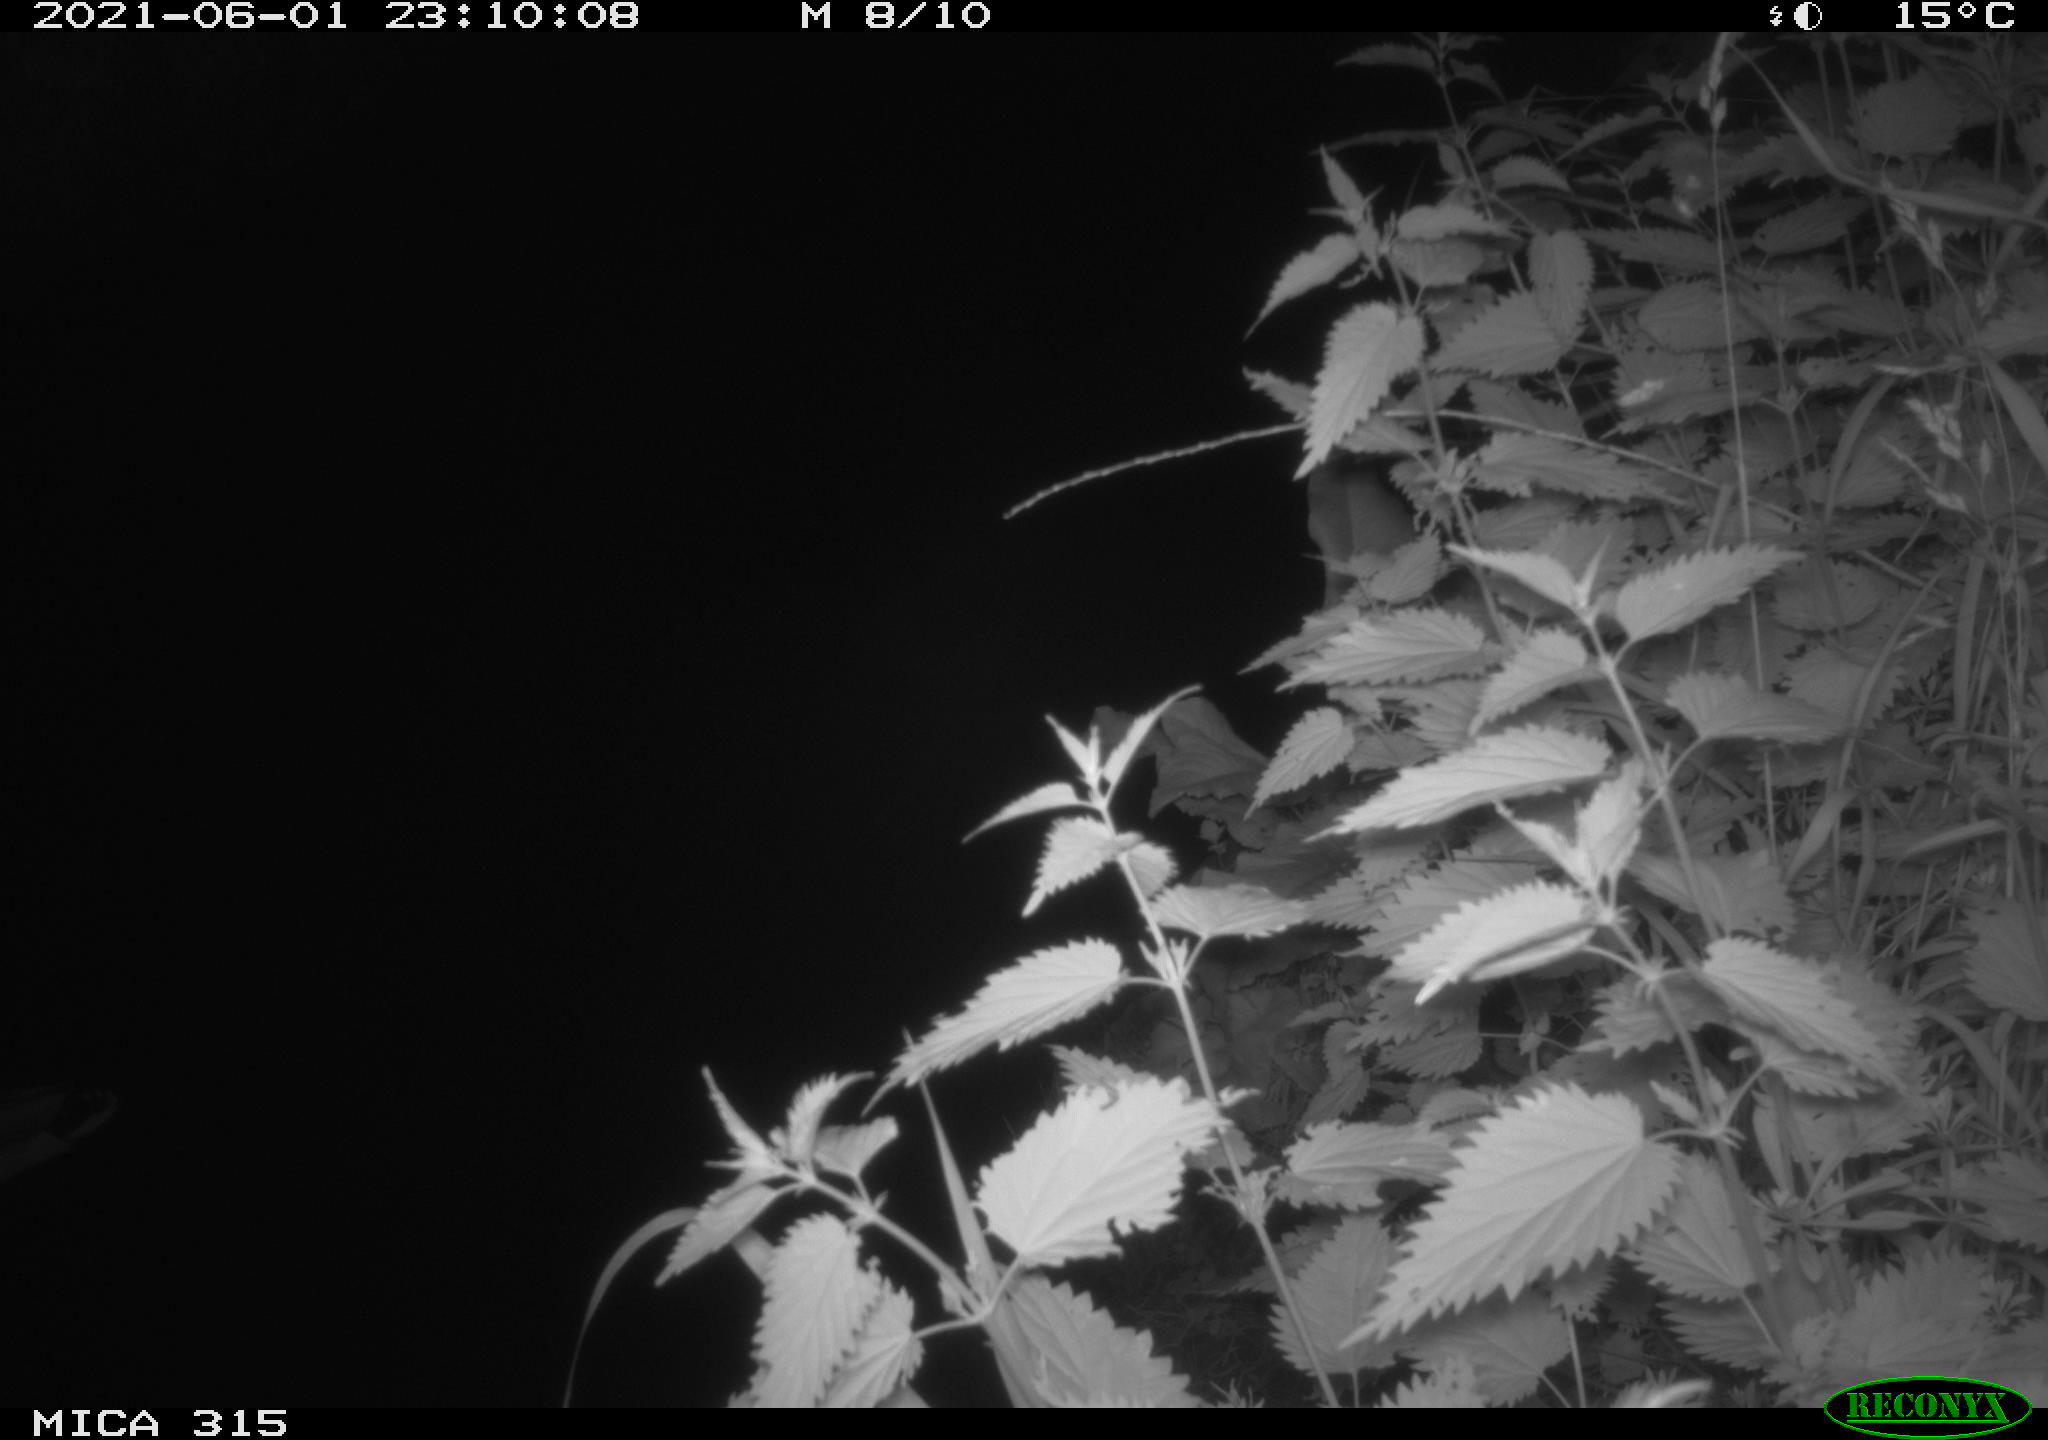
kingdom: Animalia
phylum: Chordata
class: Aves
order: Anseriformes
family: Anatidae
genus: Anas
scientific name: Anas platyrhynchos
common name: Mallard
